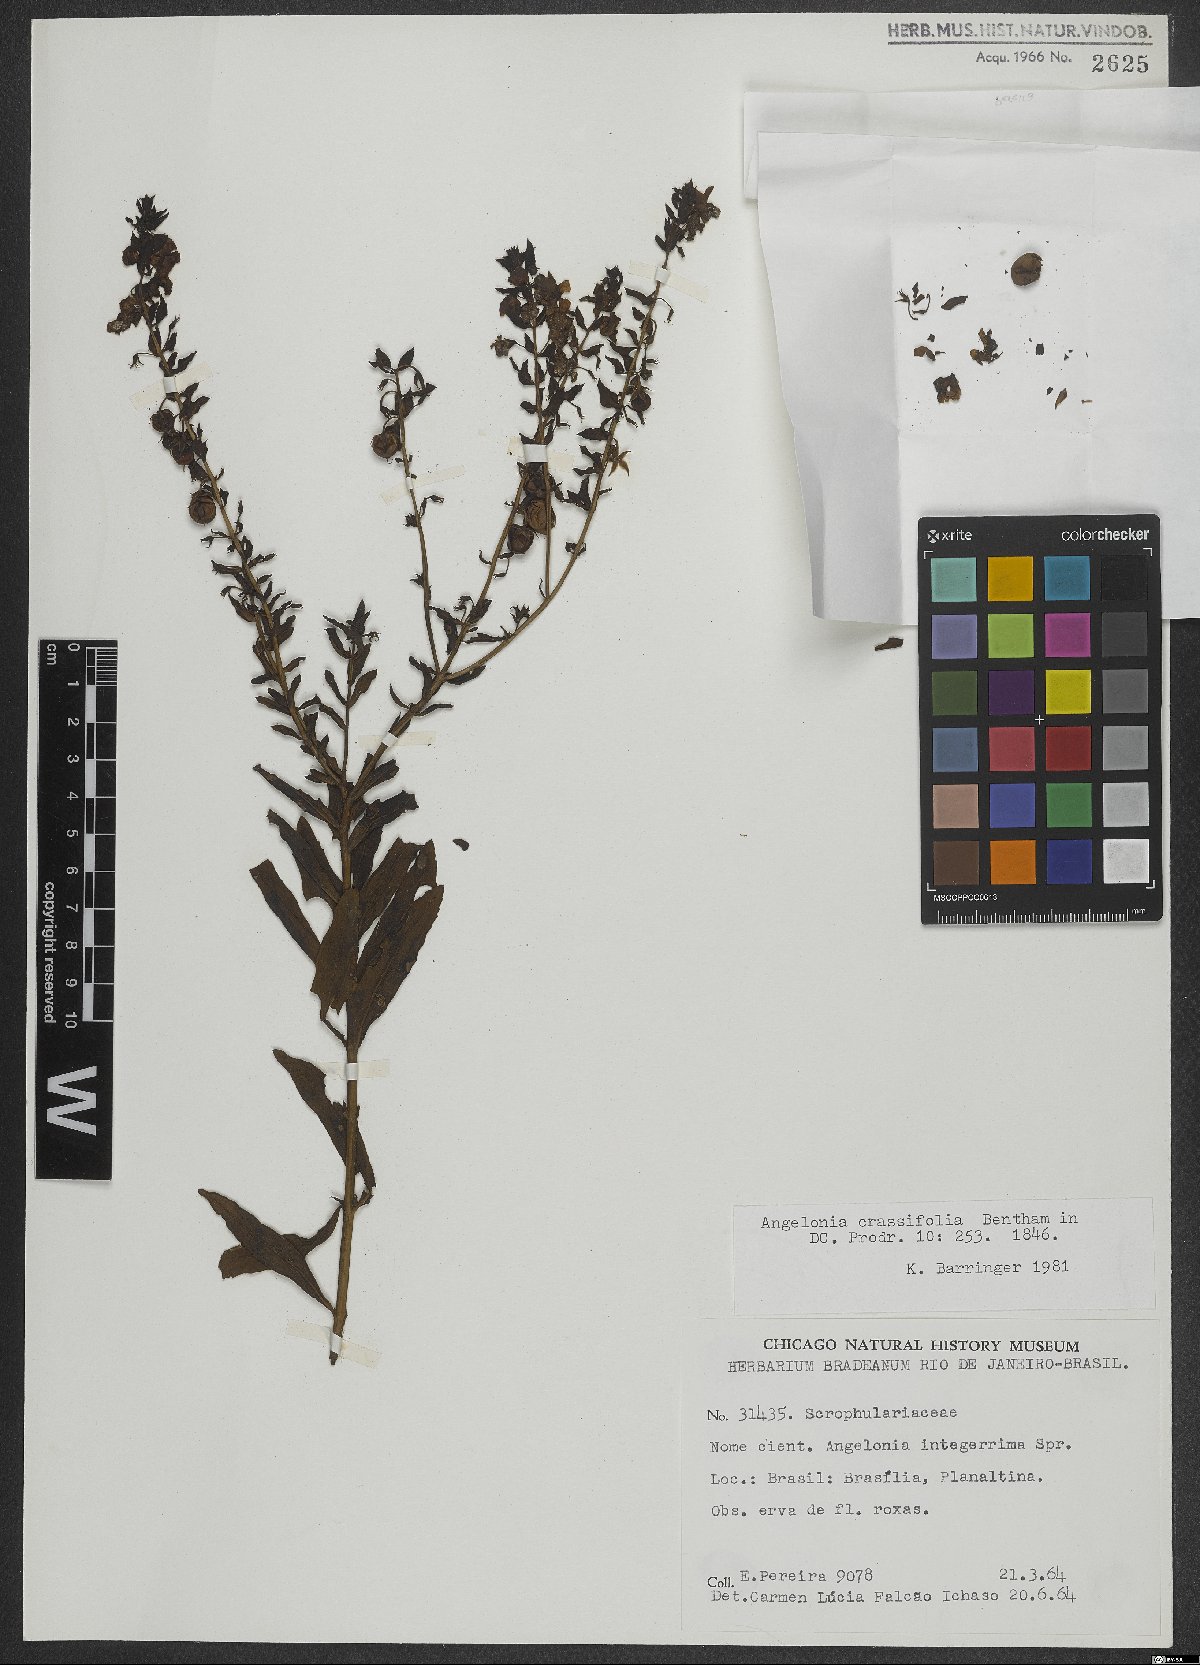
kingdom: Plantae
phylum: Tracheophyta
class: Magnoliopsida
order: Lamiales
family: Plantaginaceae
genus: Angelonia
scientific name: Angelonia crassifolia
